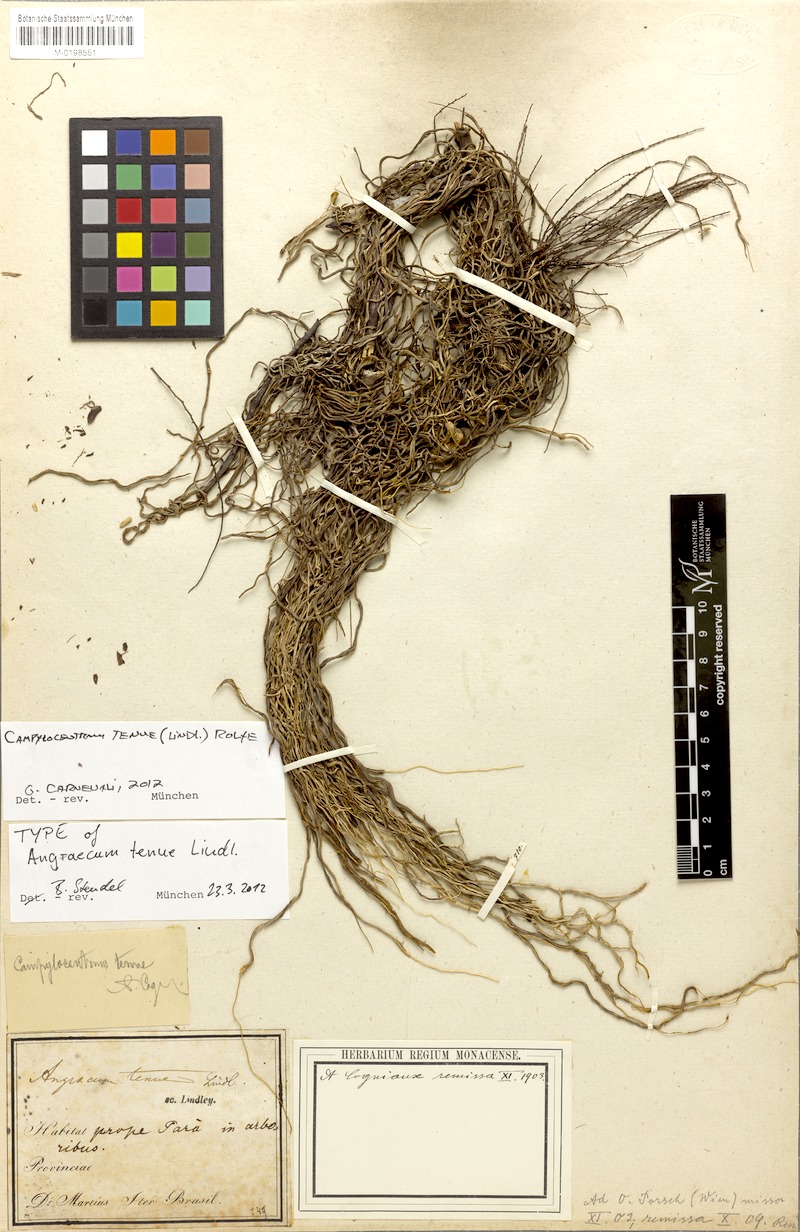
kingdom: Plantae
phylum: Tracheophyta
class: Liliopsida
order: Asparagales
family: Orchidaceae
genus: Campylocentrum
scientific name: Campylocentrum tenue
